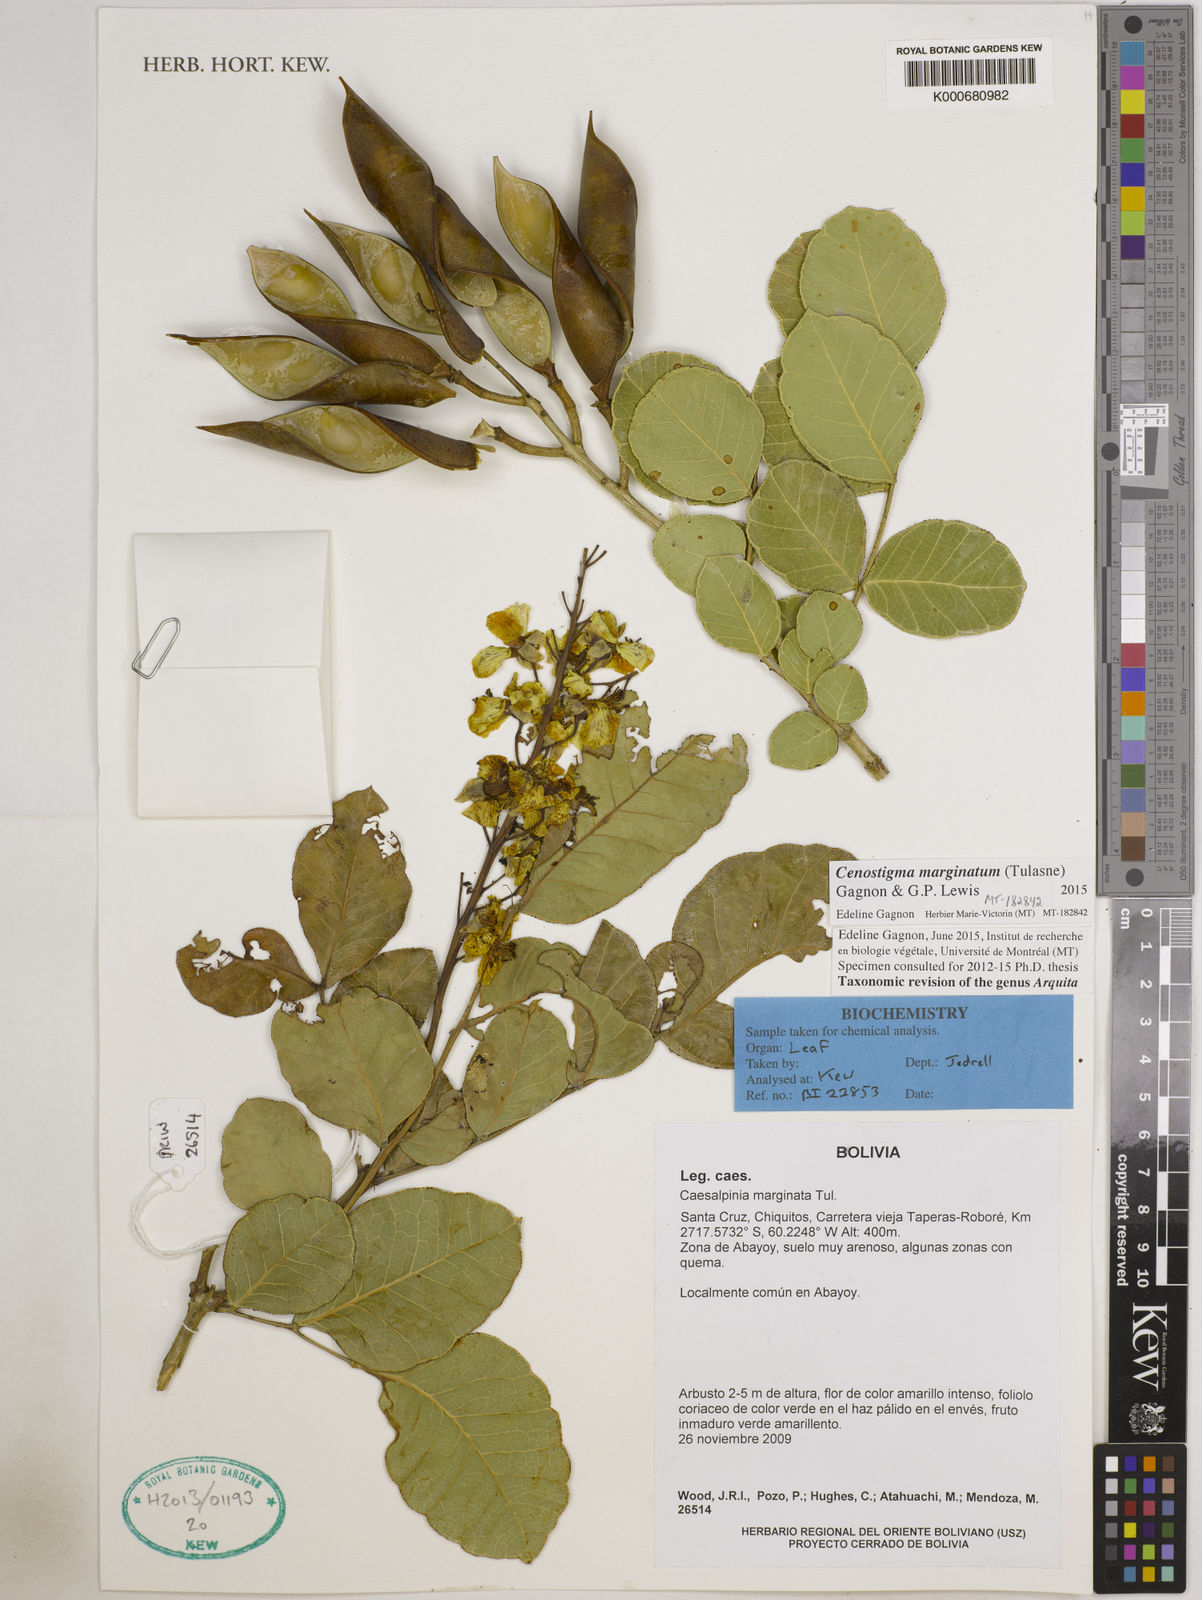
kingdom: Plantae
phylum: Tracheophyta
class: Magnoliopsida
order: Fabales
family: Fabaceae
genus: Cenostigma
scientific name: Cenostigma marginatum
